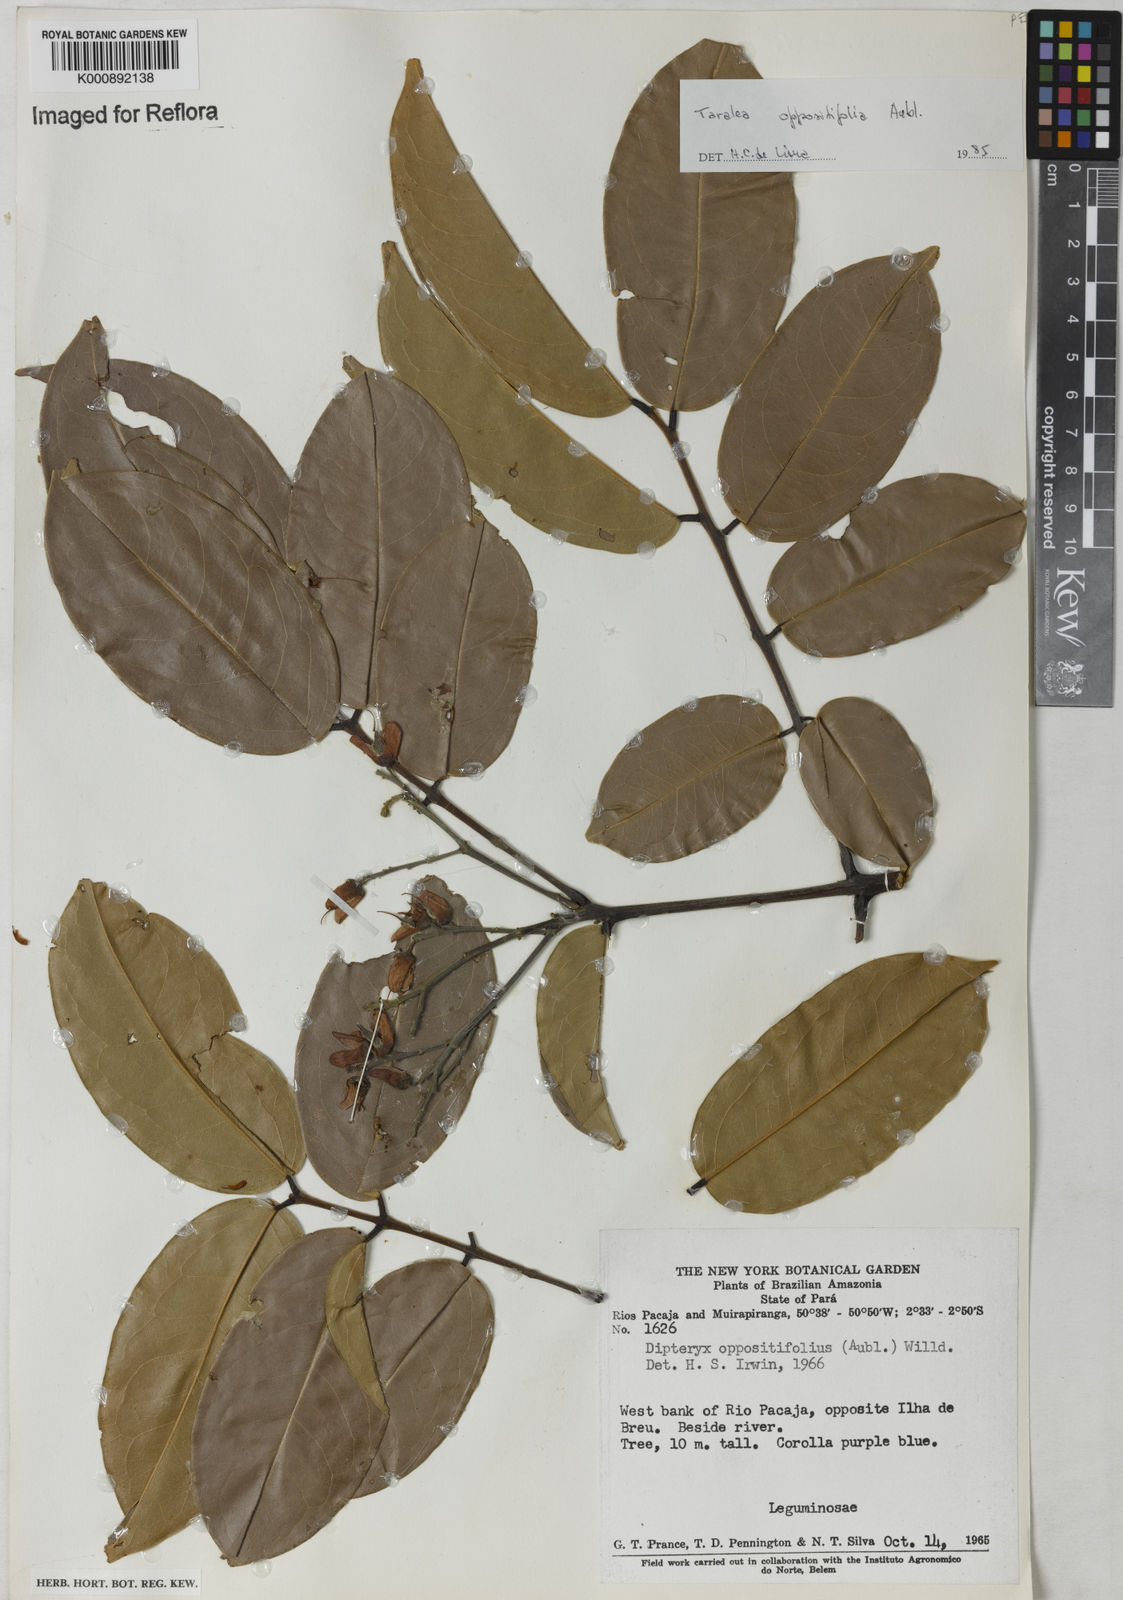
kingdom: Plantae
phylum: Tracheophyta
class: Magnoliopsida
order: Fabales
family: Fabaceae
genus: Taralea
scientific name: Taralea oppositifolia
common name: Tonka
